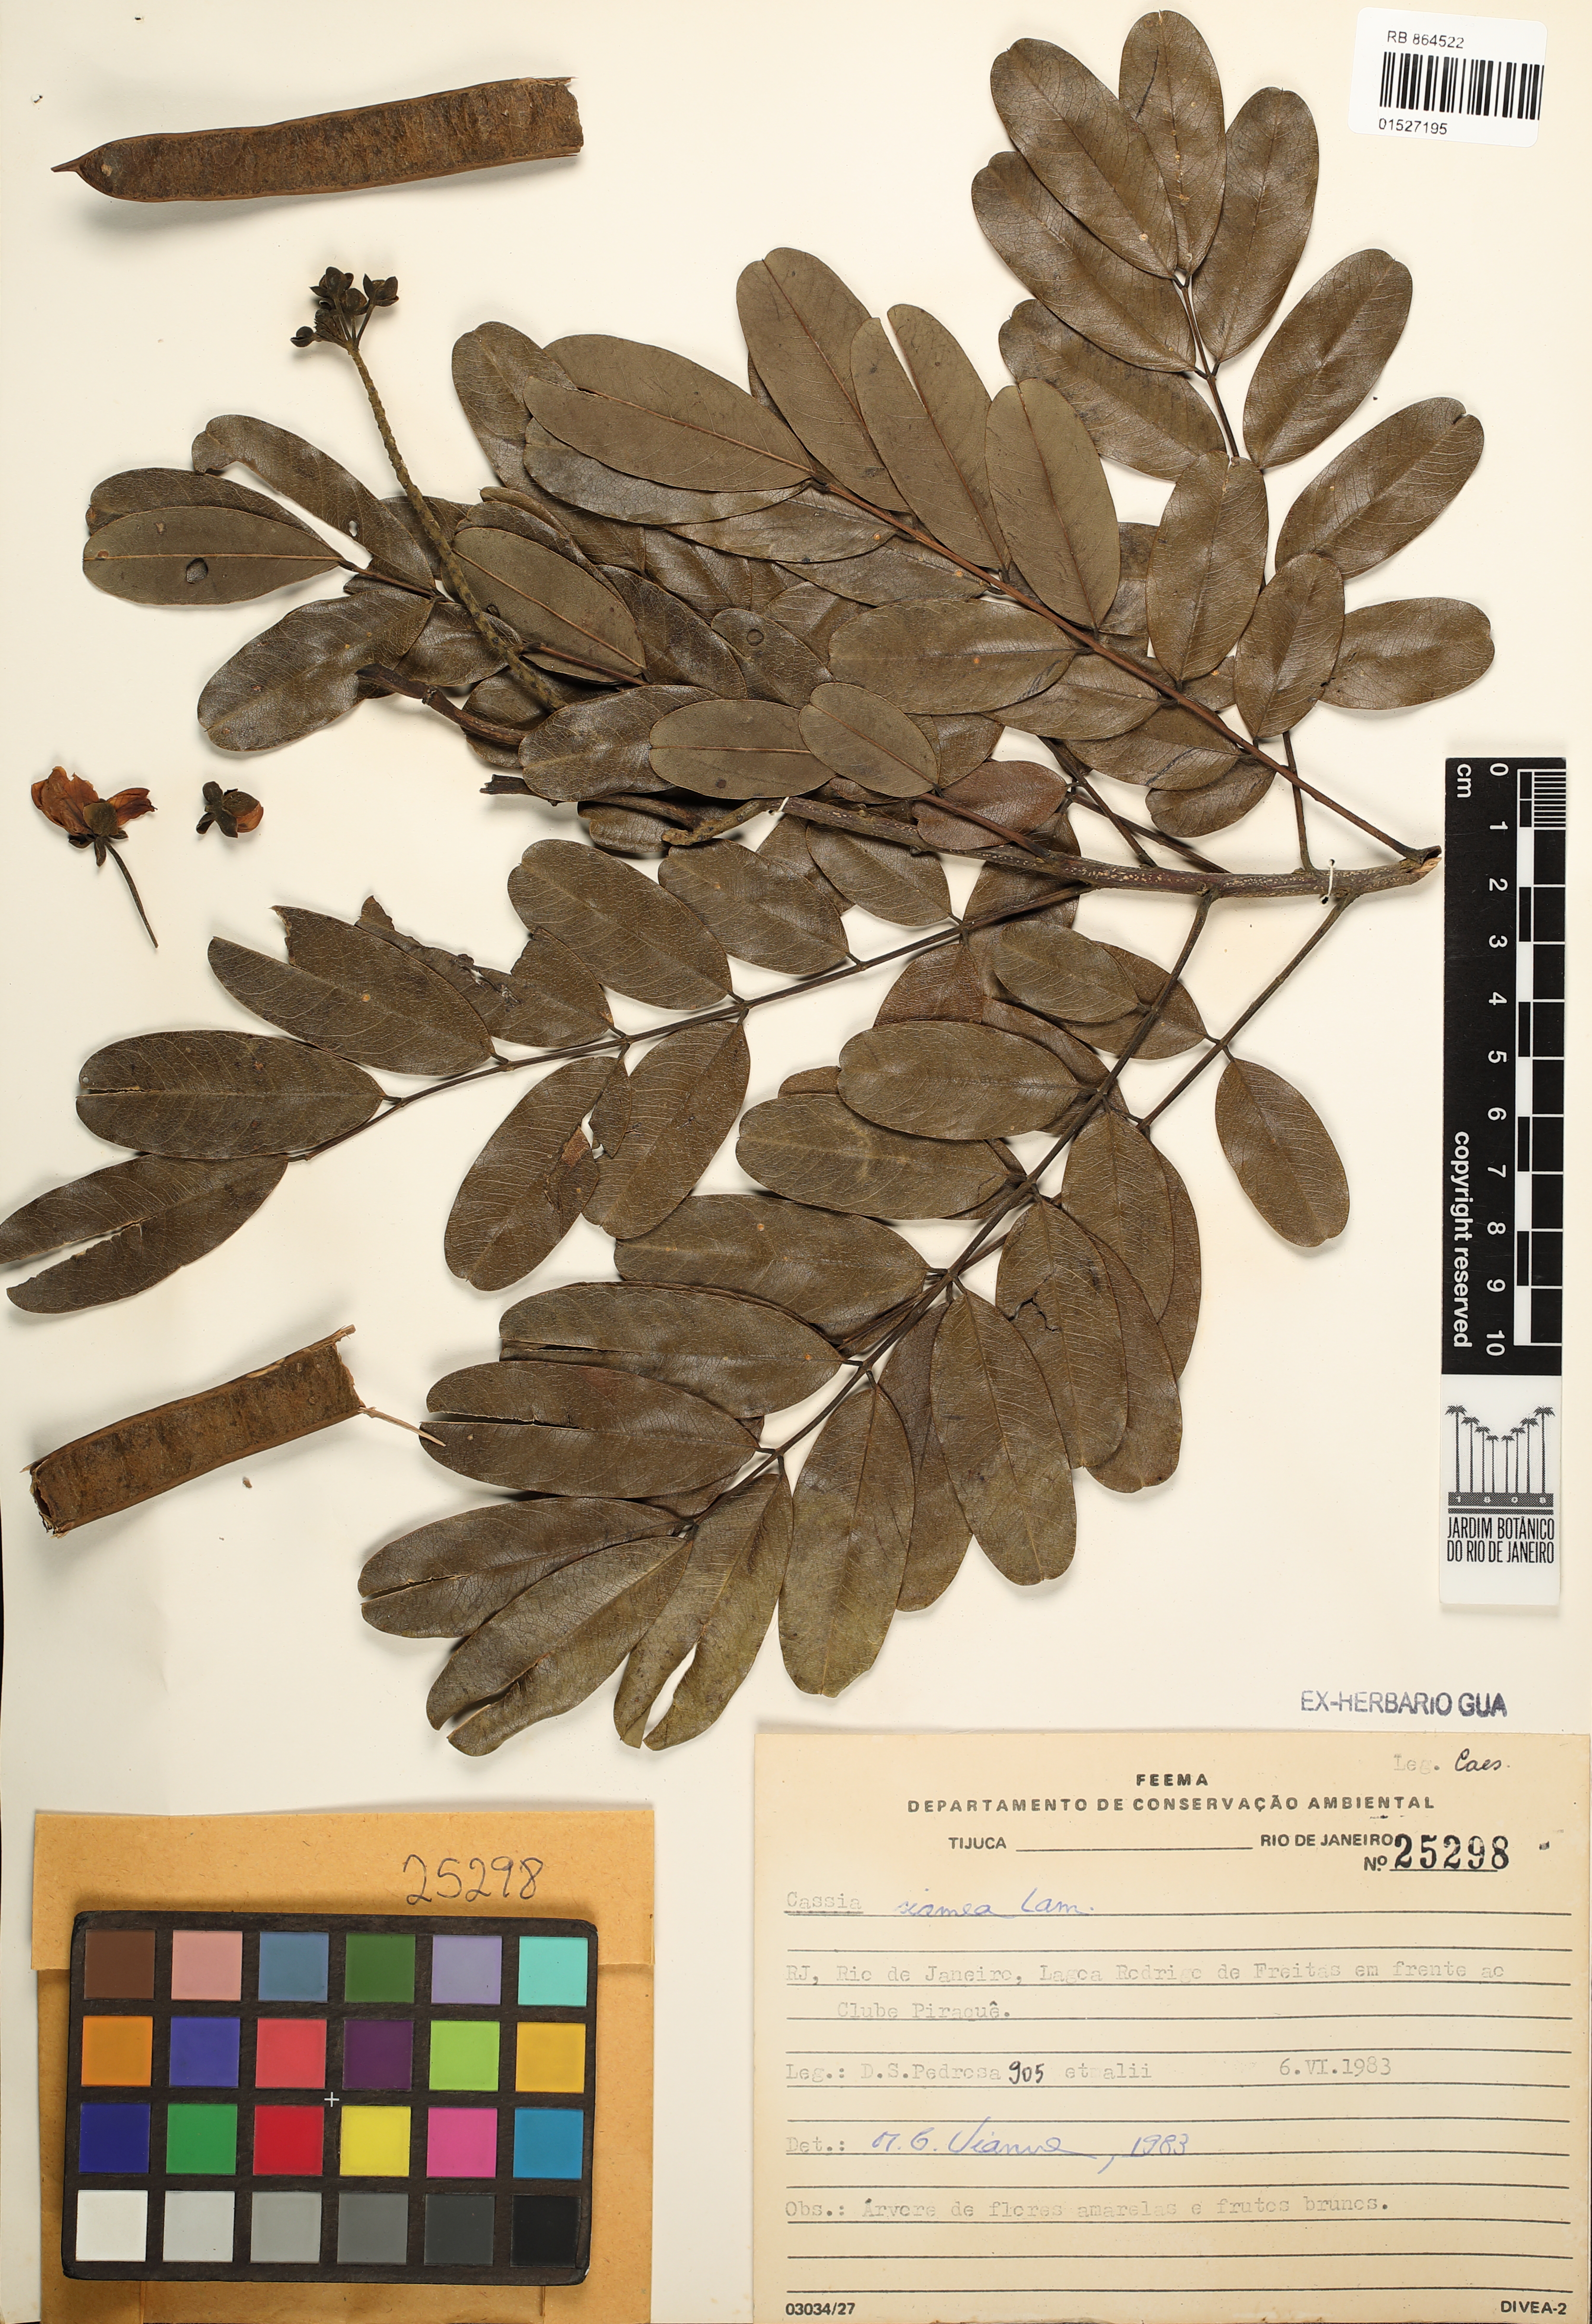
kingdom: Plantae
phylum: Tracheophyta
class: Magnoliopsida
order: Fabales
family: Fabaceae
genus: Senna
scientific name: Senna siamea
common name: Siamese cassia
